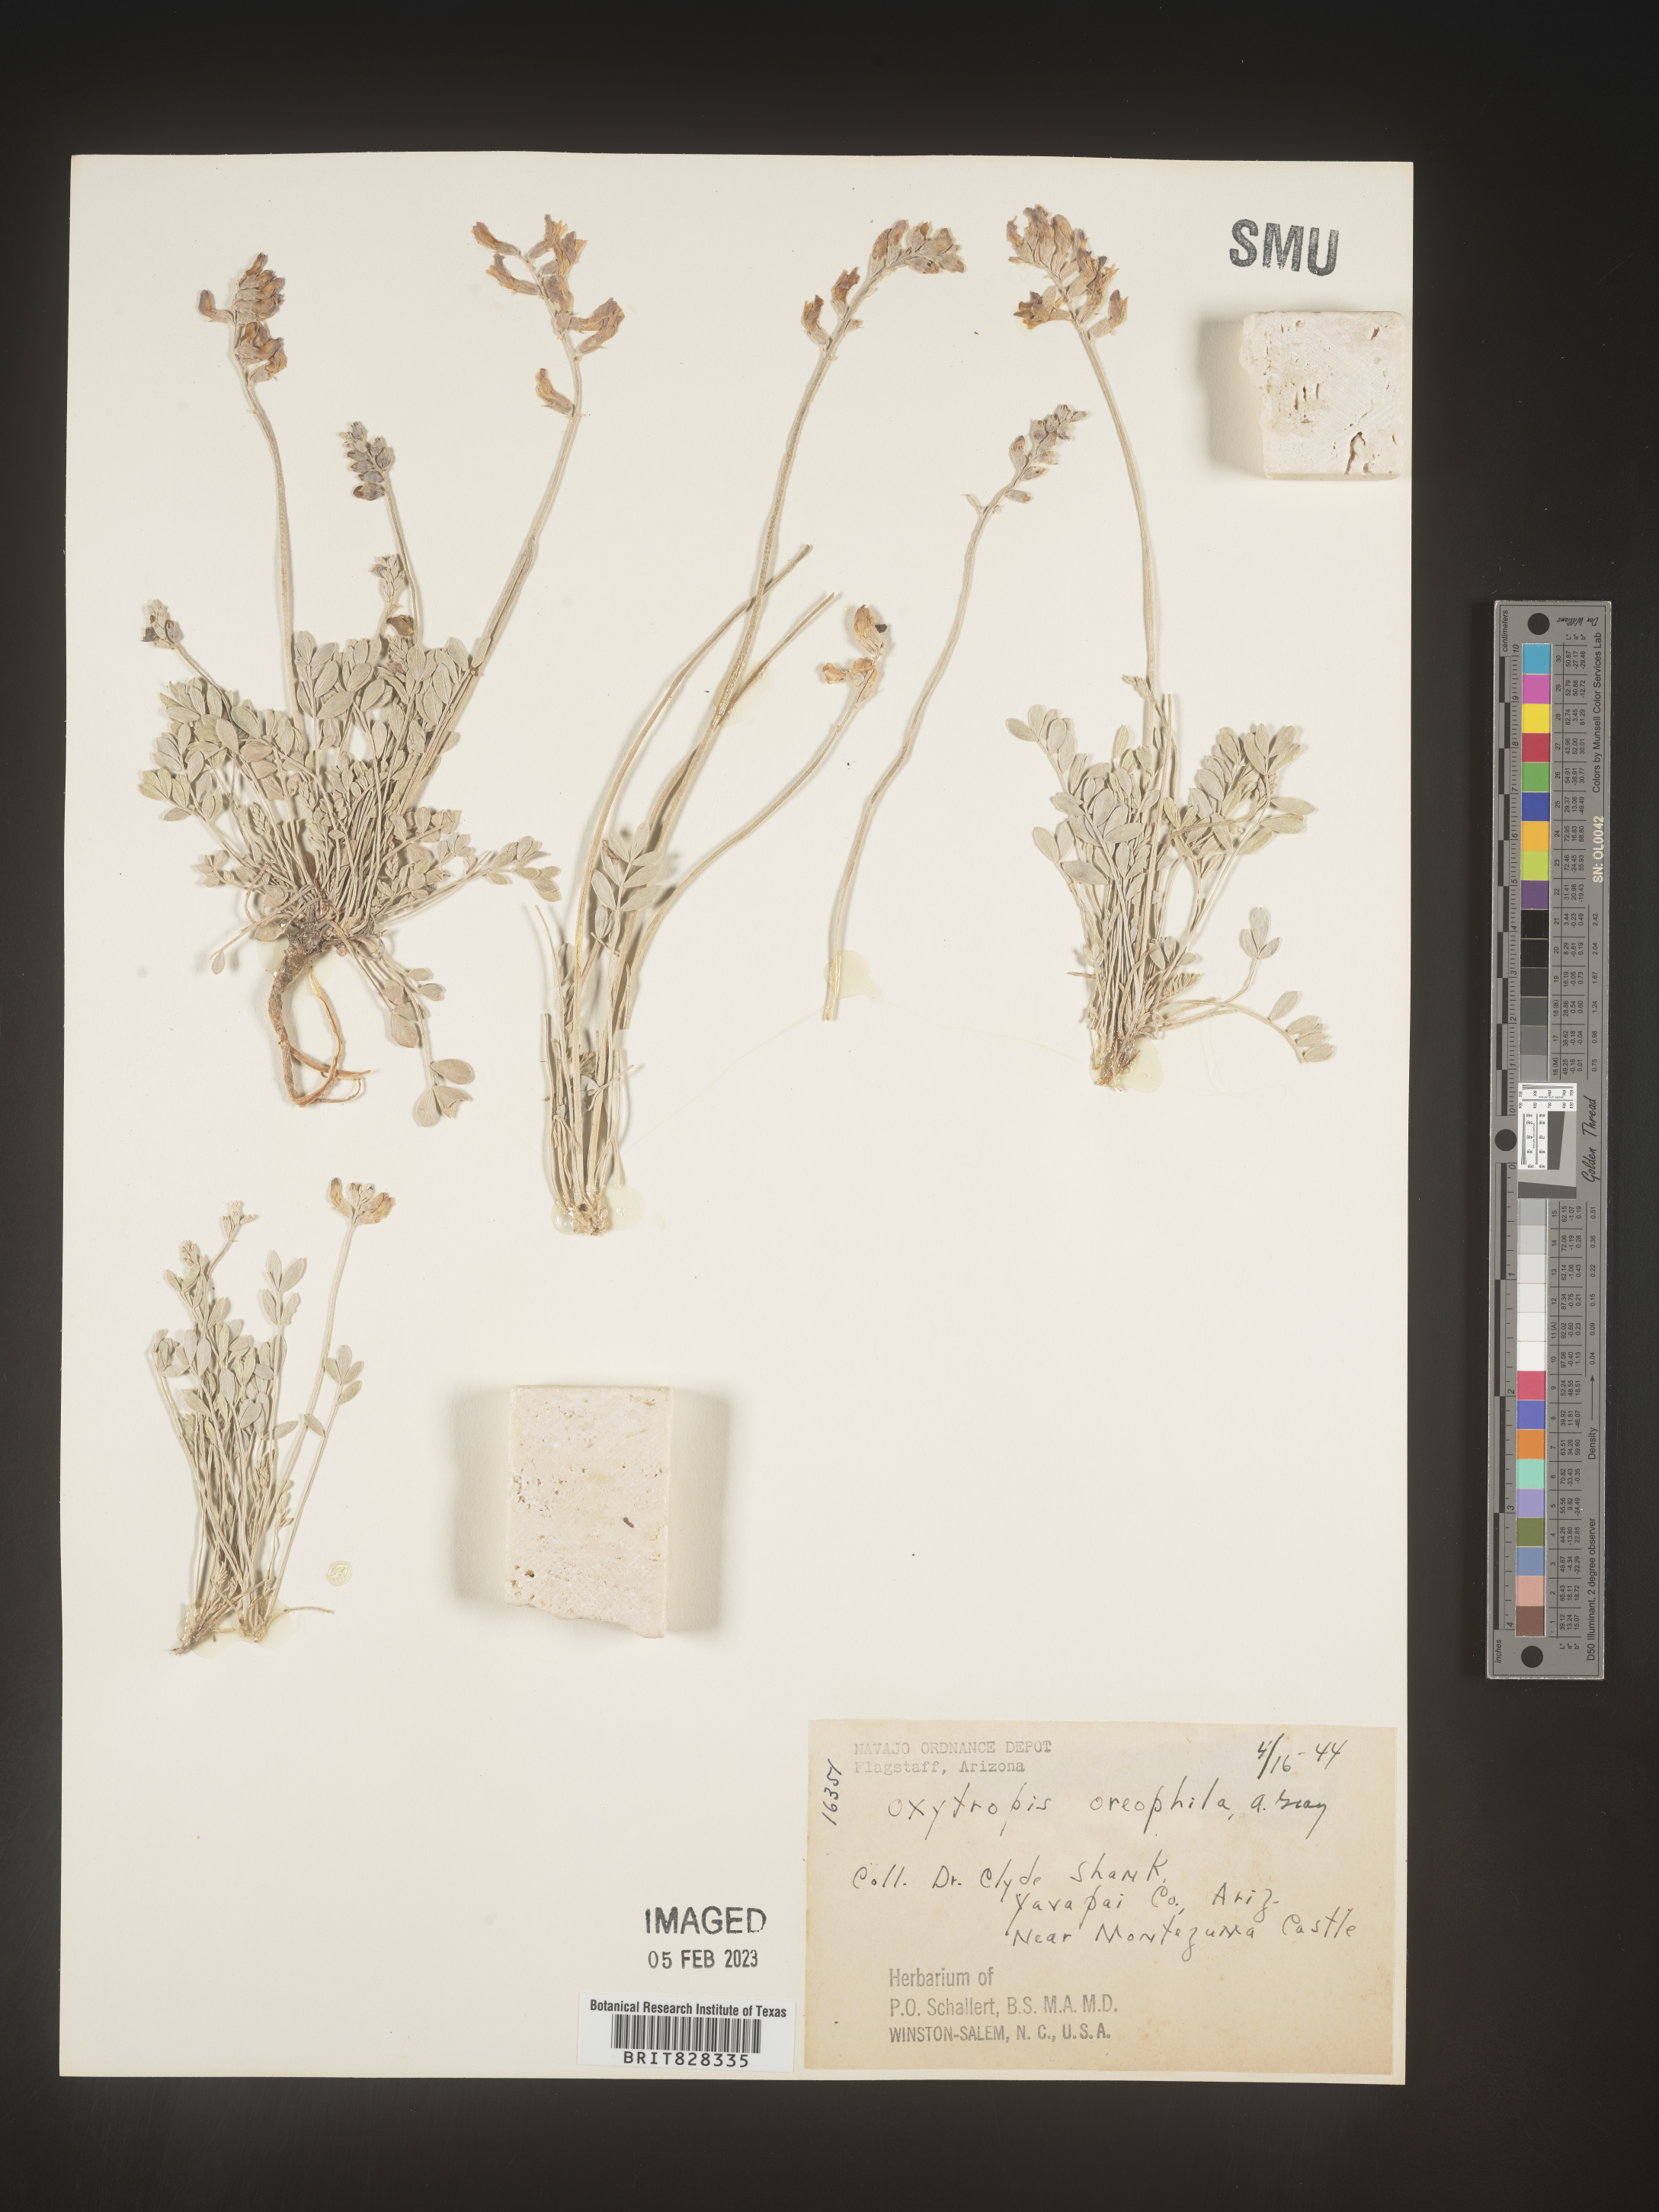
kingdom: Plantae
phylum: Tracheophyta
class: Magnoliopsida
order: Fabales
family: Fabaceae
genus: Oxytropis
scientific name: Oxytropis
